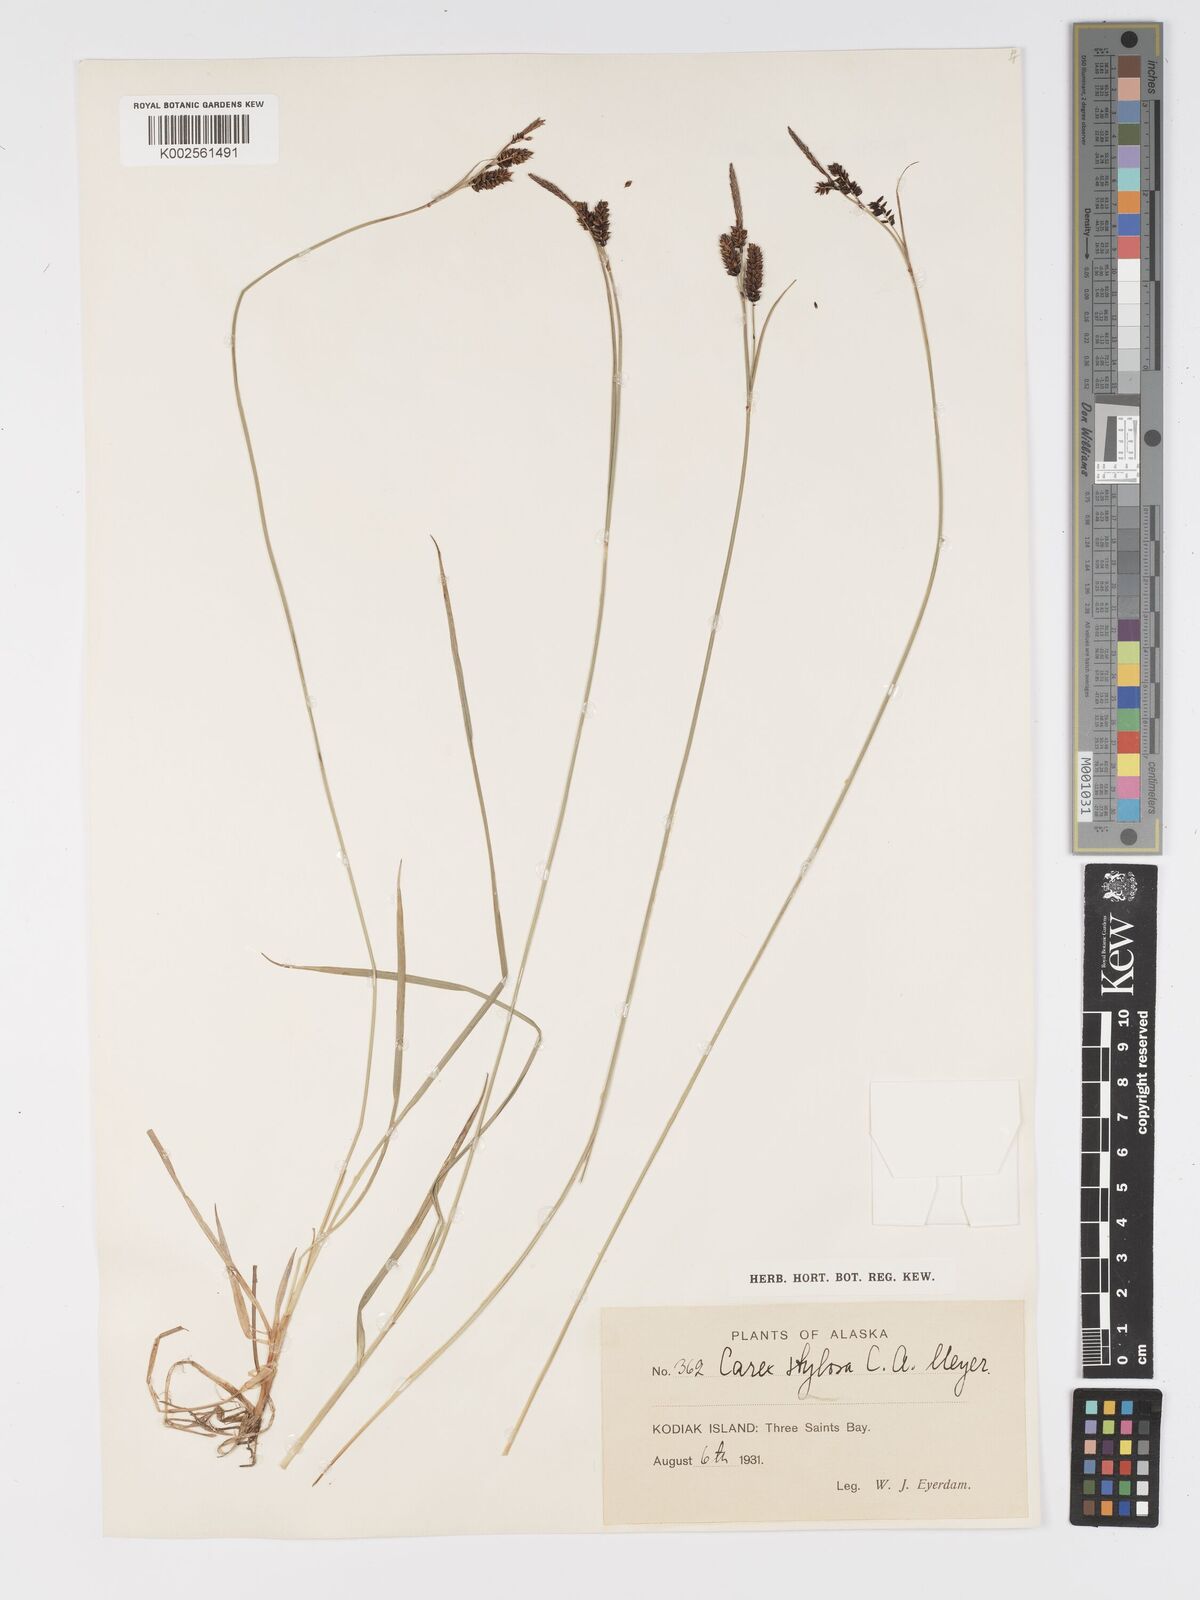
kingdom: Plantae
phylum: Tracheophyta
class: Liliopsida
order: Poales
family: Cyperaceae
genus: Carex
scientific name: Carex stylosa
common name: Long-styled sedge
